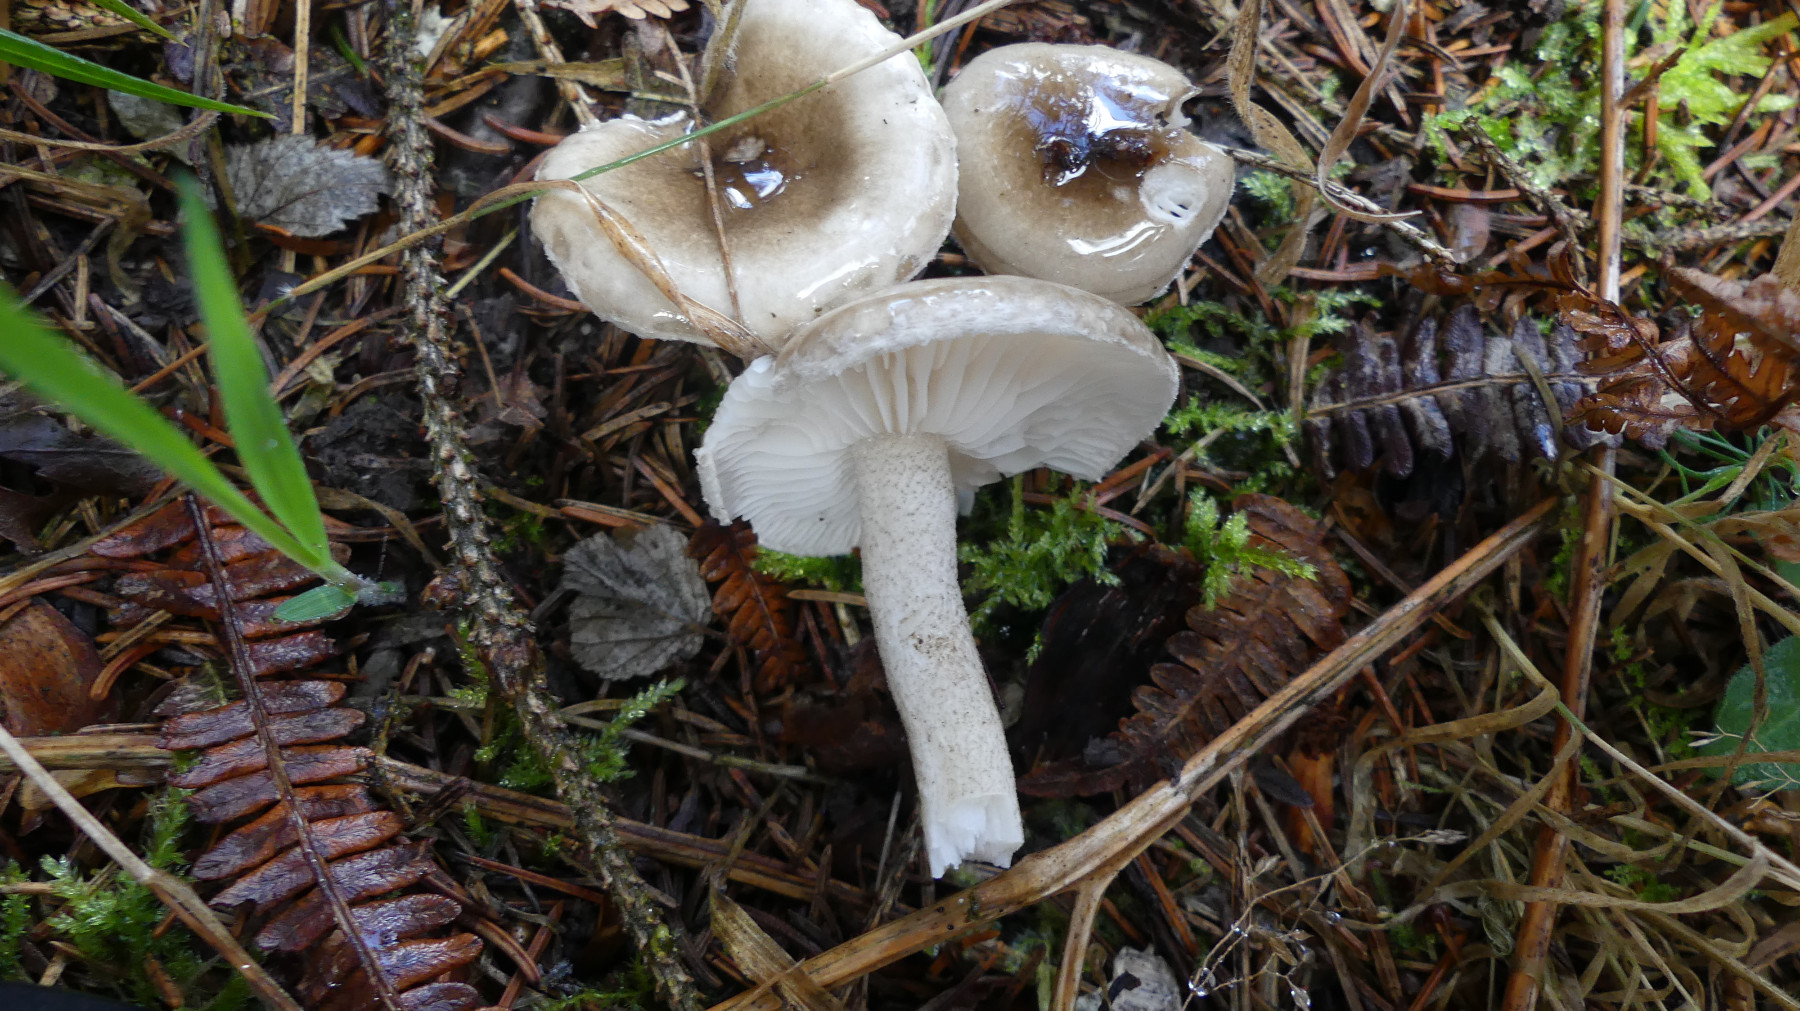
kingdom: Fungi
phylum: Basidiomycota
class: Agaricomycetes
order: Agaricales
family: Hygrophoraceae
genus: Hygrophorus
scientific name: Hygrophorus pustulatus
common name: mørkprikket sneglehat
